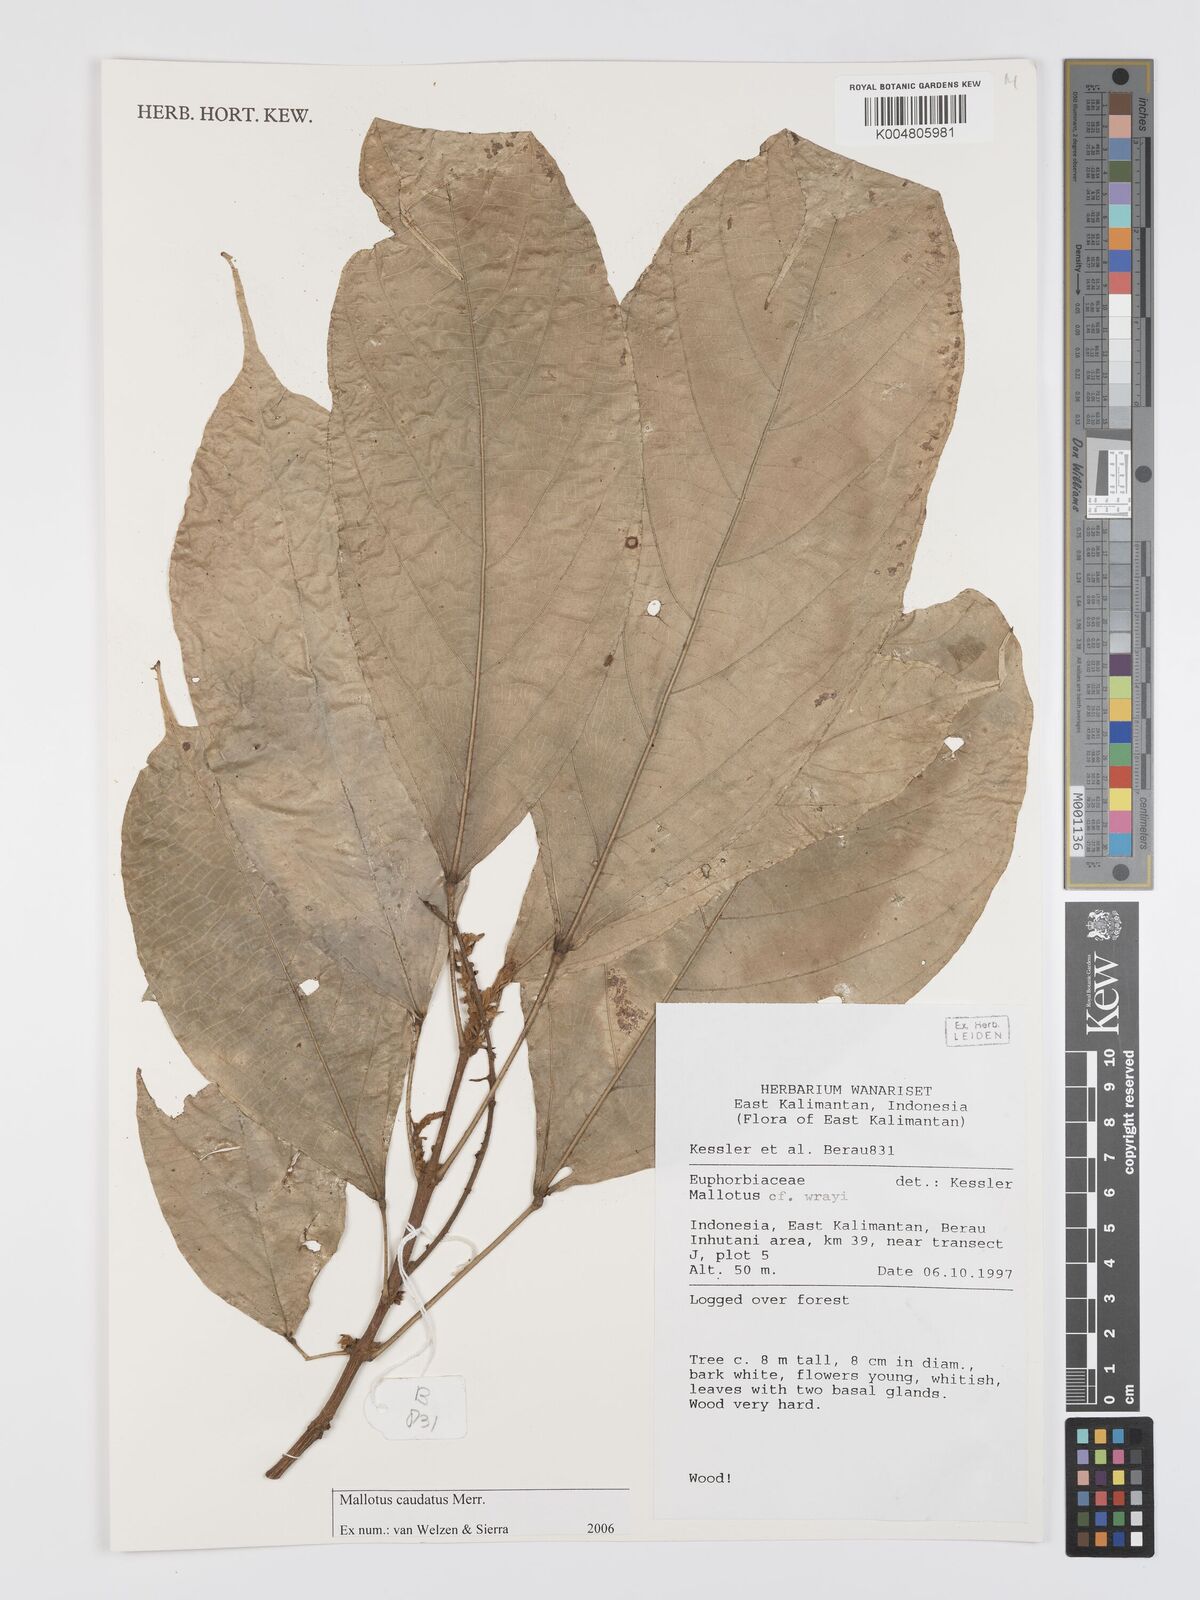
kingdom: Plantae
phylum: Tracheophyta
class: Magnoliopsida
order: Malpighiales
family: Euphorbiaceae
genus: Mallotus
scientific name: Mallotus caudatus
